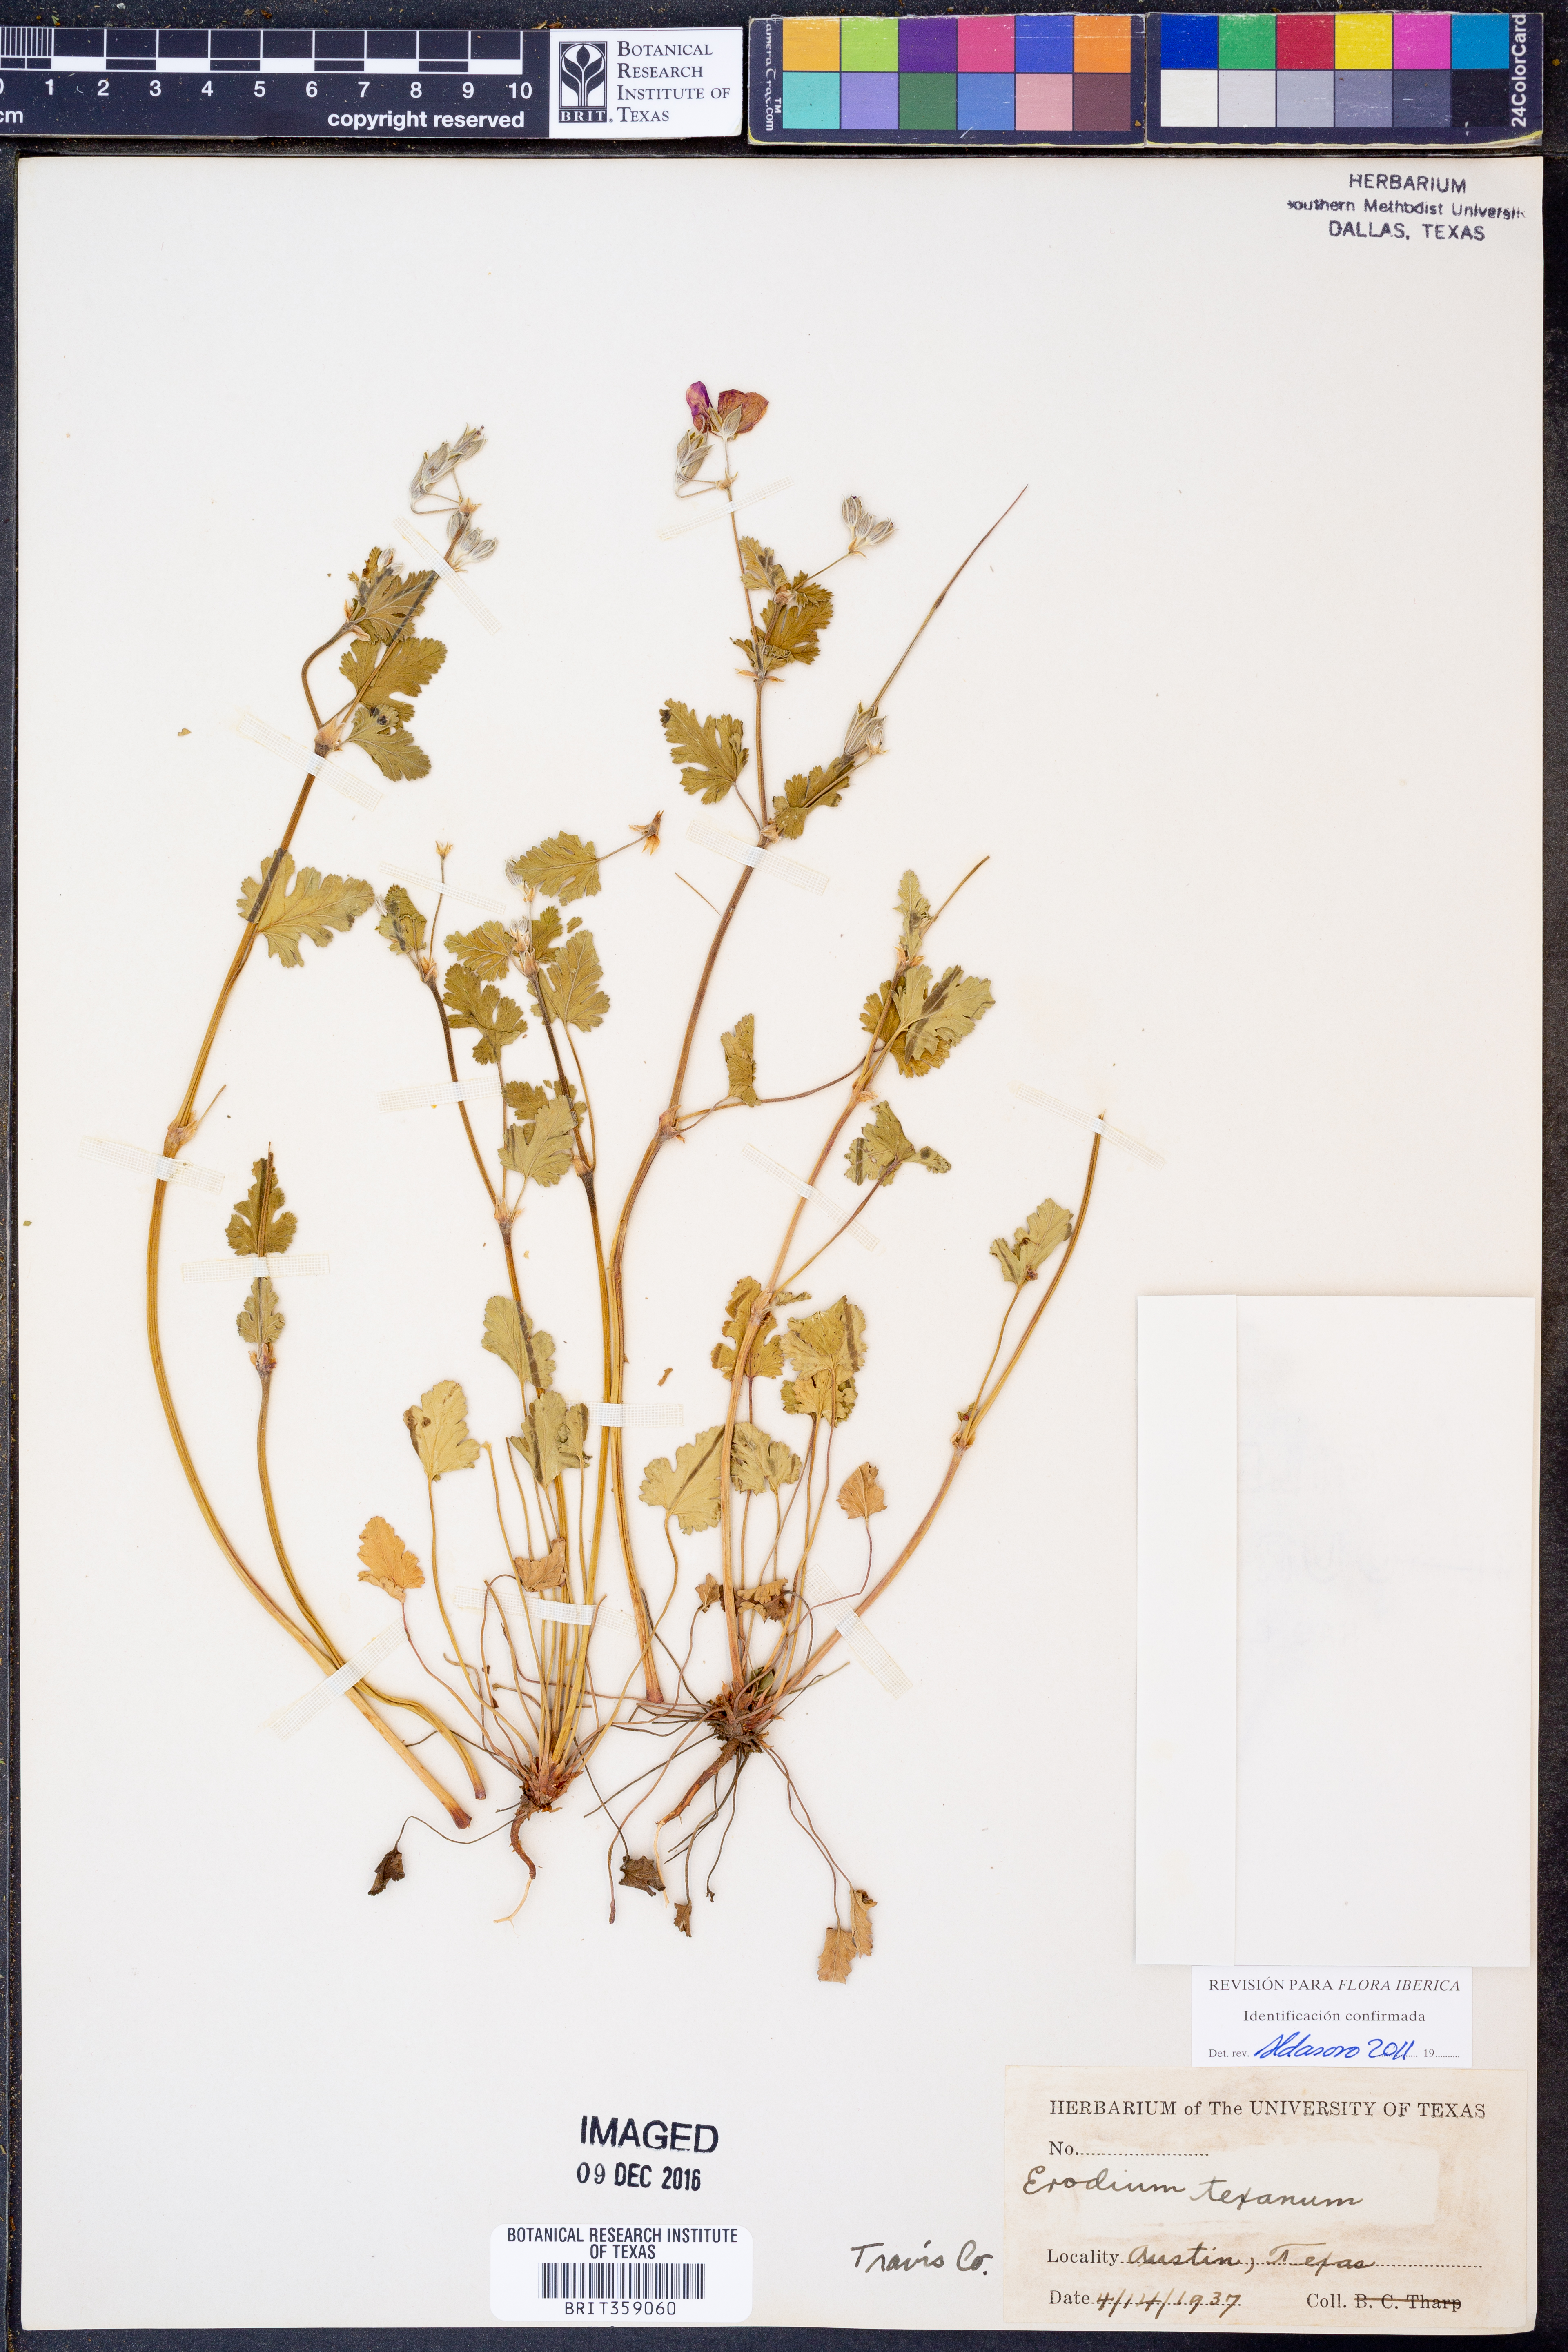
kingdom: Plantae
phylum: Tracheophyta
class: Magnoliopsida
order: Geraniales
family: Geraniaceae
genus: Erodium
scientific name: Erodium texanum
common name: Texas stork's-bill
